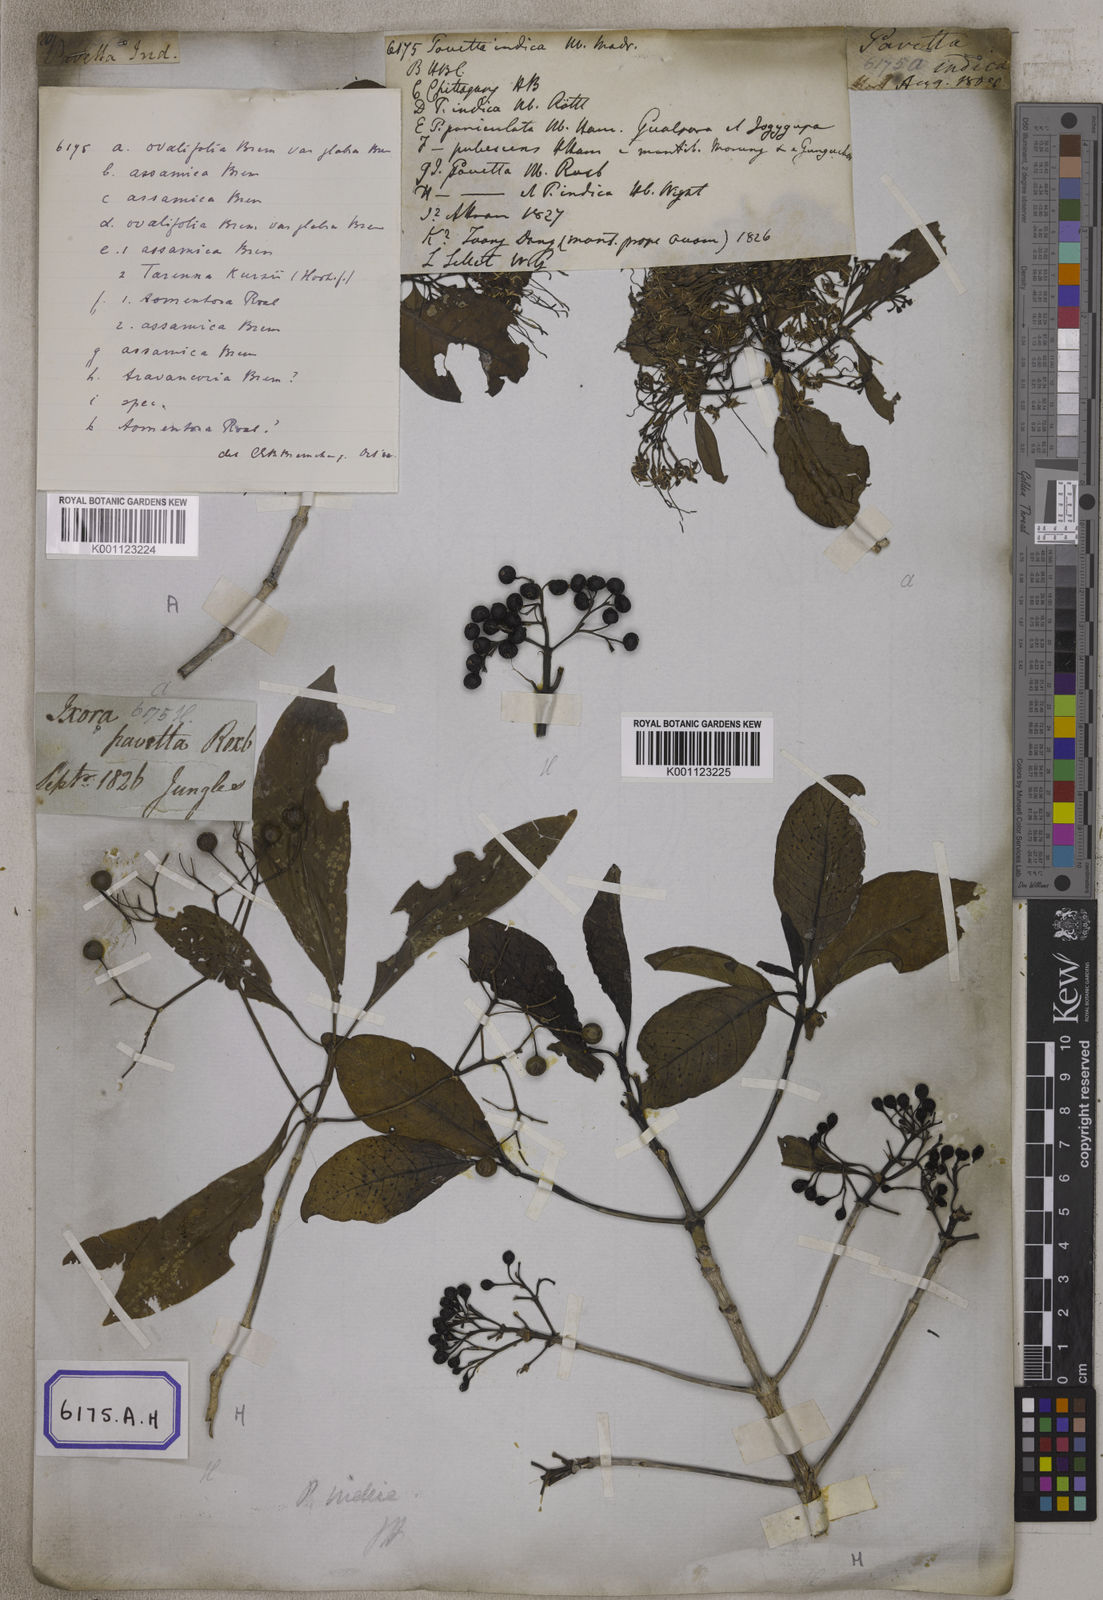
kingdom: Plantae
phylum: Tracheophyta
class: Magnoliopsida
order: Gentianales
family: Rubiaceae
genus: Pavetta
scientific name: Pavetta indica
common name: Indian pavetta
